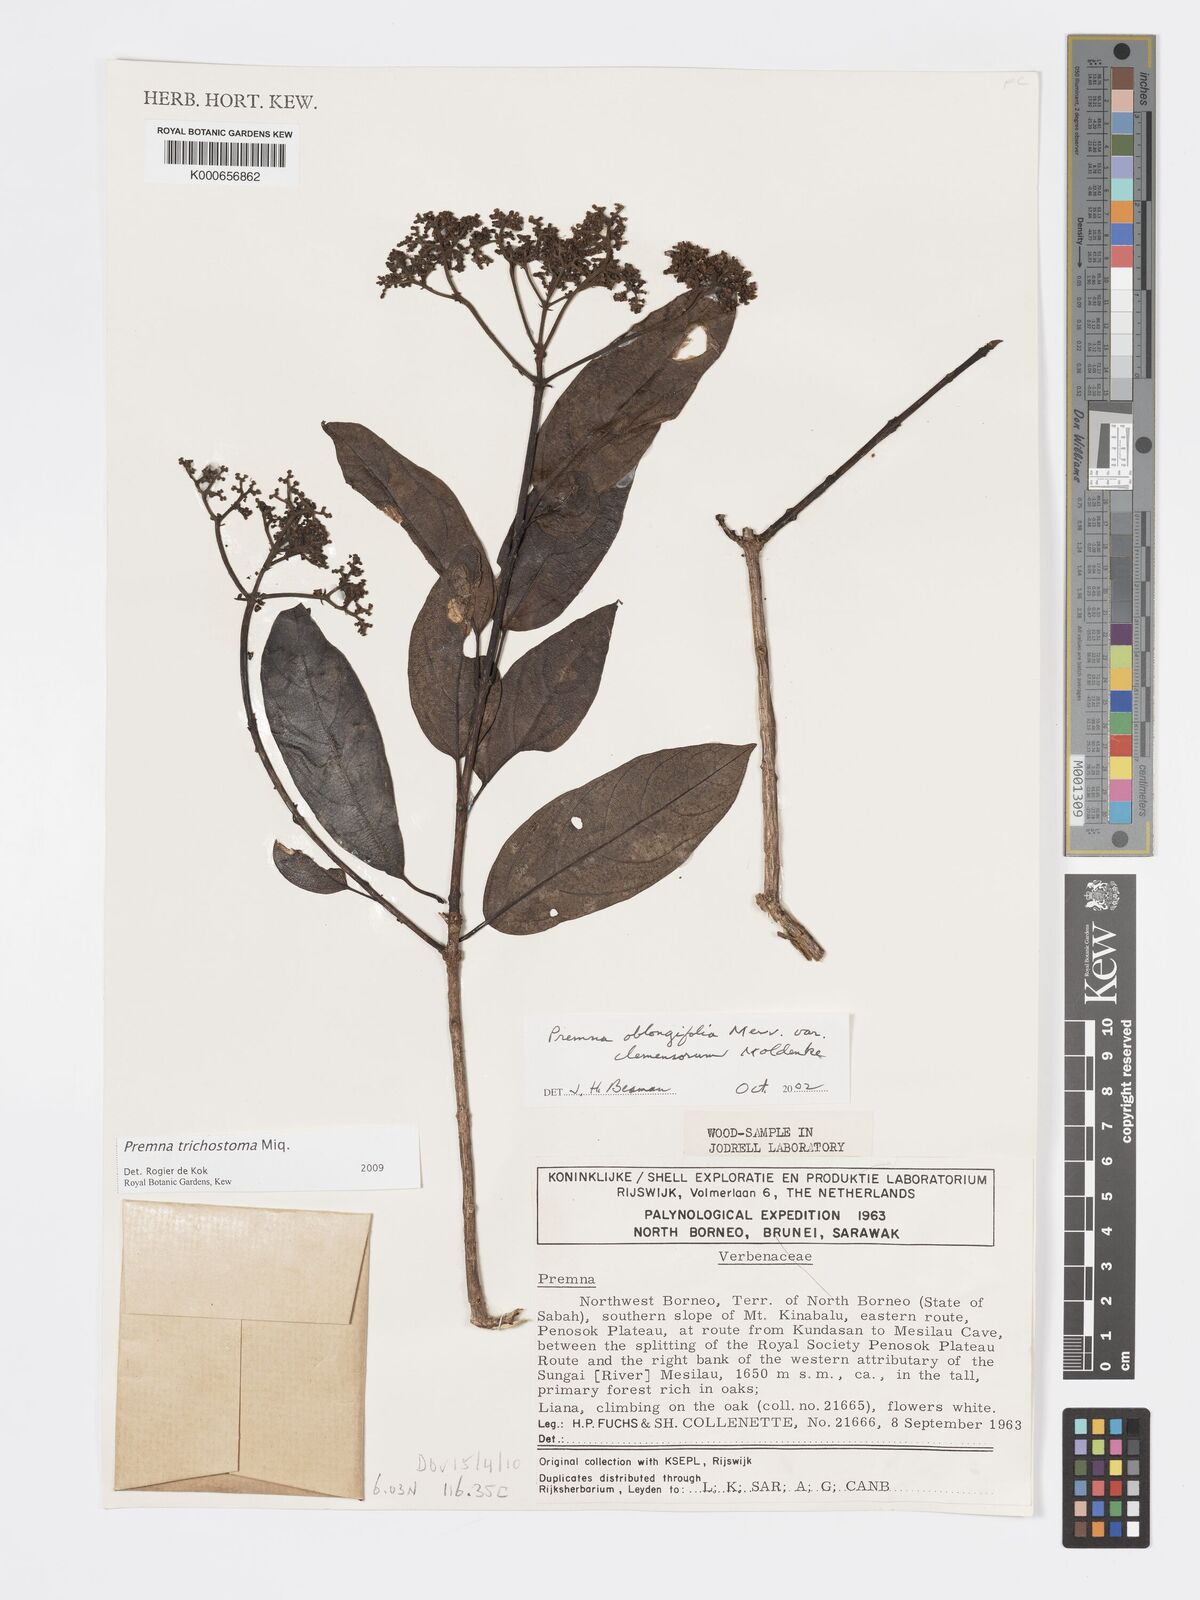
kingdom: Plantae
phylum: Tracheophyta
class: Magnoliopsida
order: Lamiales
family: Lamiaceae
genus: Premna
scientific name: Premna trichostoma
